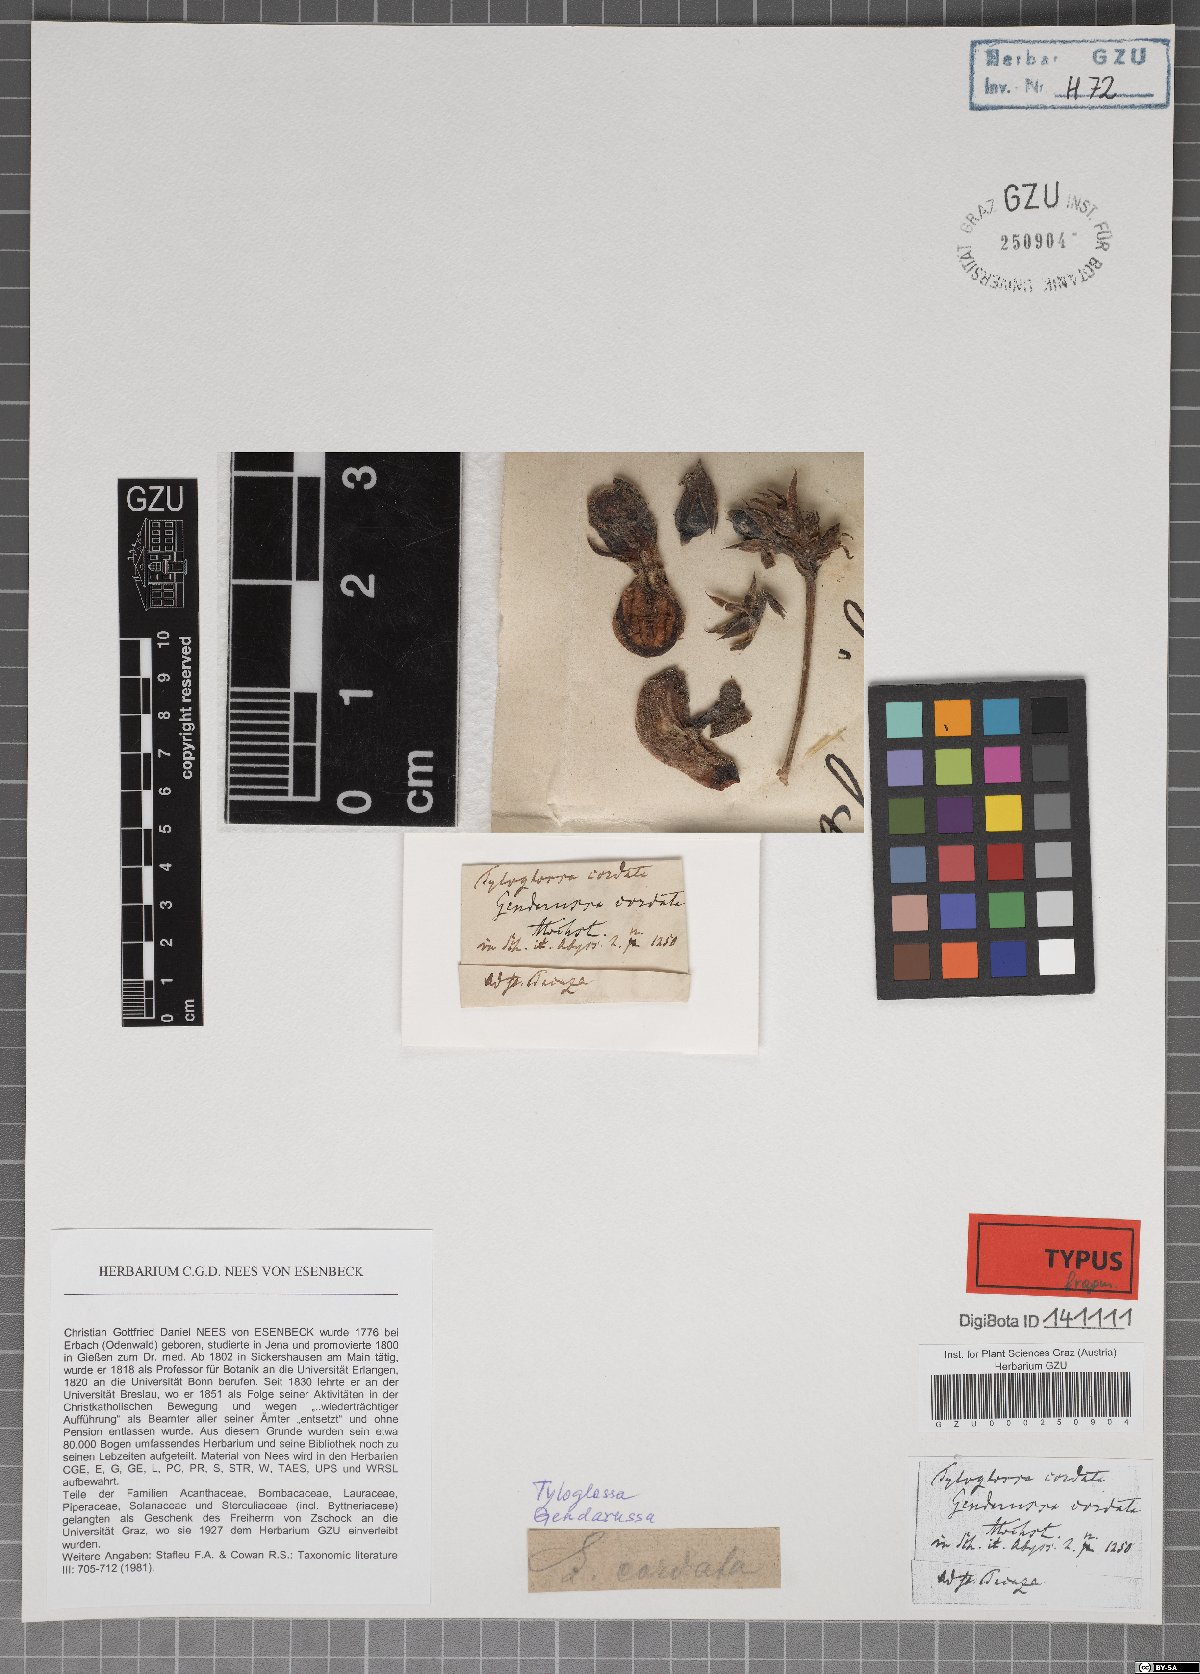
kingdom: Plantae
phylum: Tracheophyta
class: Magnoliopsida
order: Lamiales
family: Acanthaceae
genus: Justicia
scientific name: Justicia cordata
